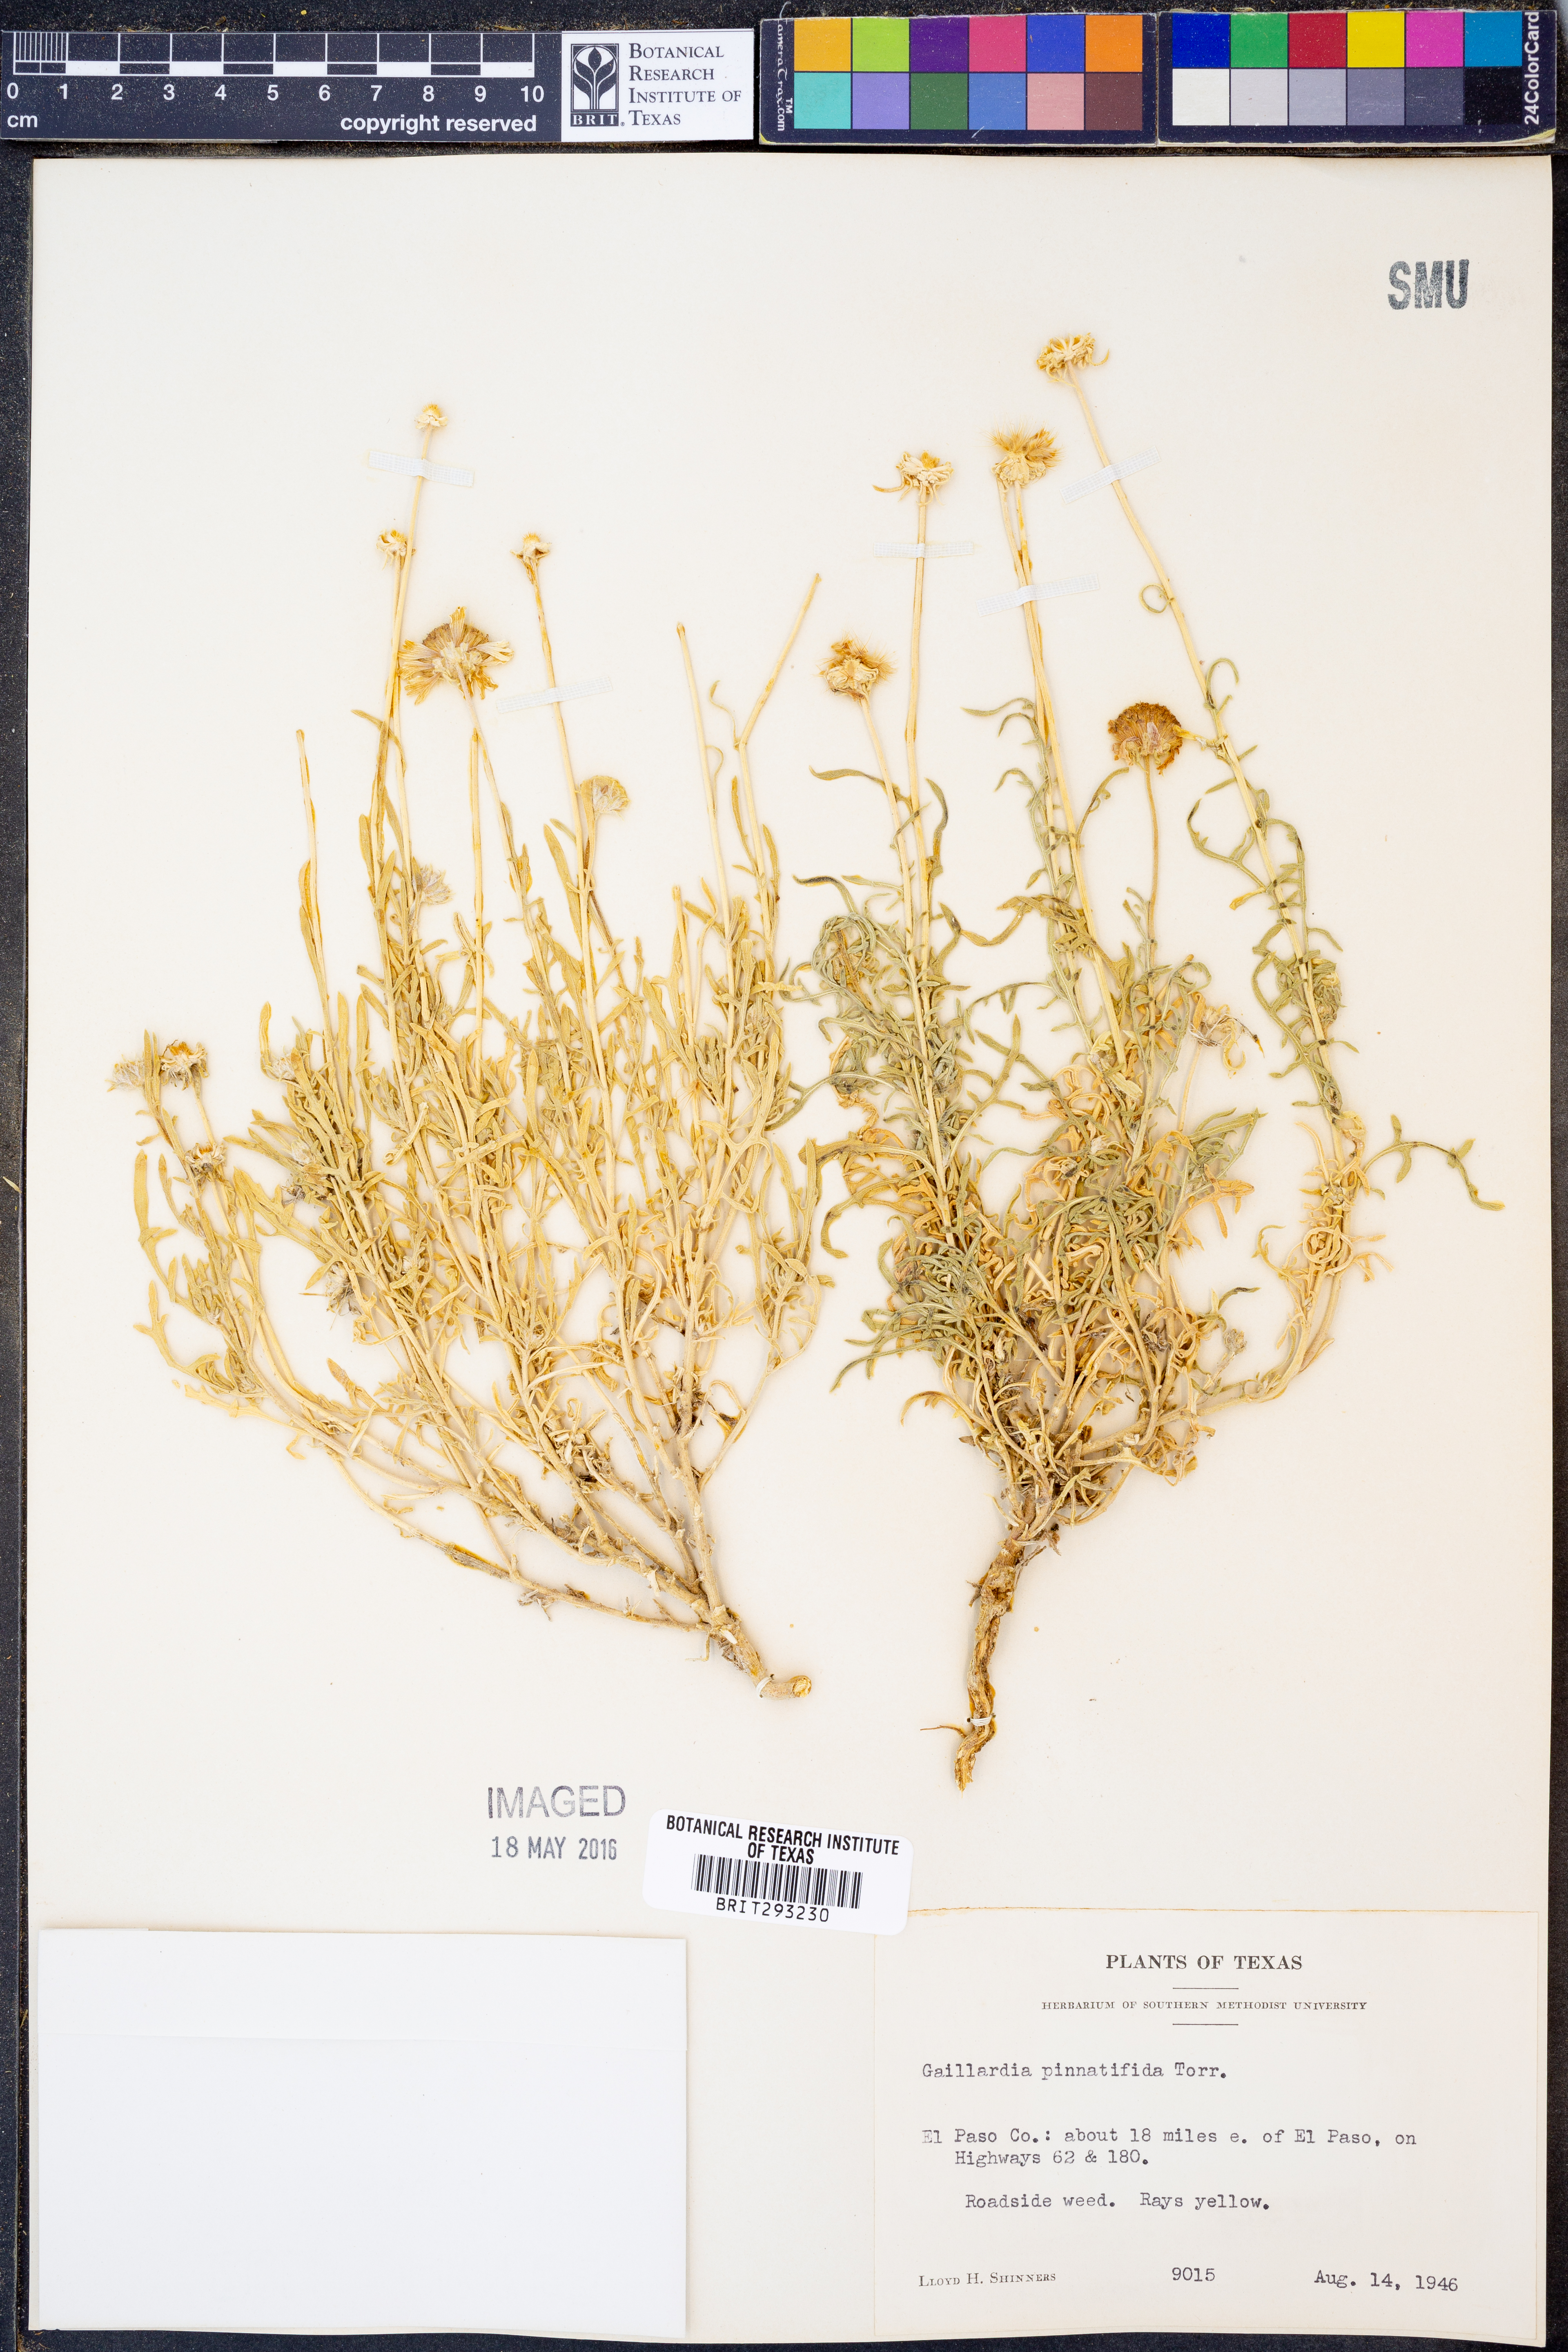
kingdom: Plantae
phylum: Tracheophyta
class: Magnoliopsida
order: Asterales
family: Asteraceae
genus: Gaillardia
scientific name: Gaillardia pinnatifida
